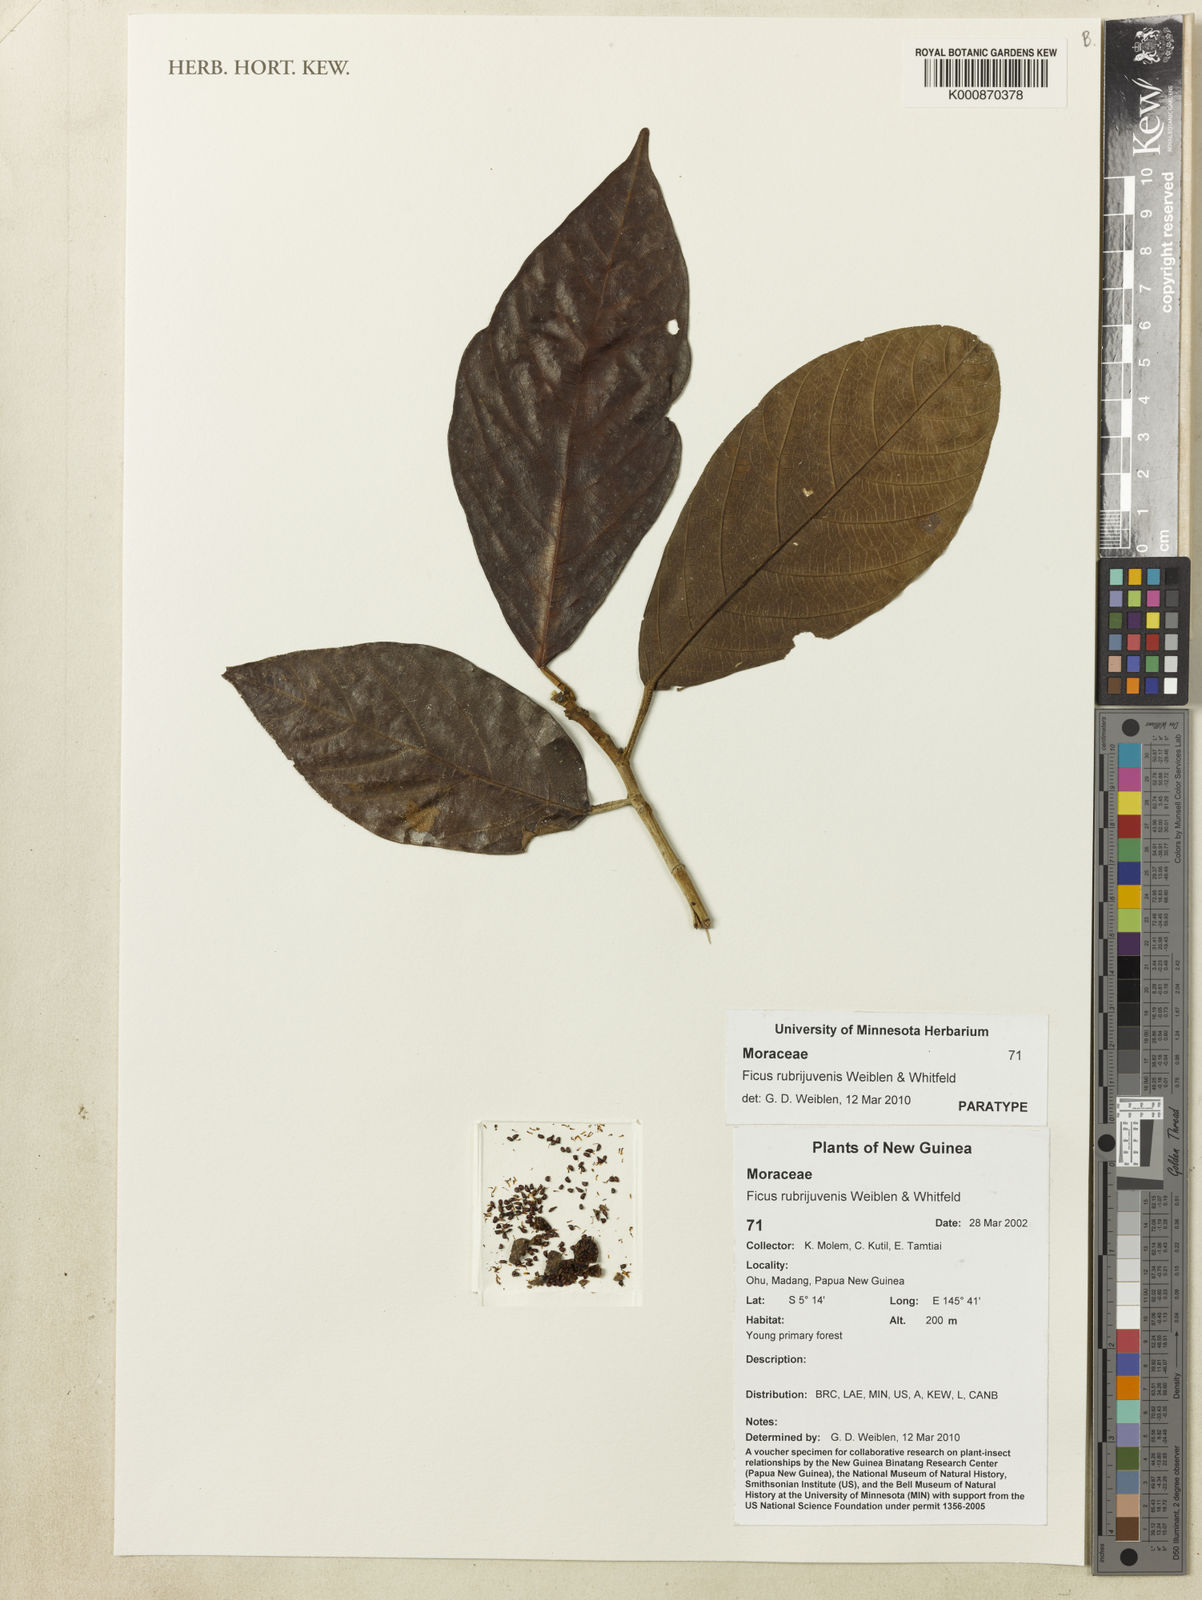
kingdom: Plantae
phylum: Tracheophyta
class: Magnoliopsida
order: Rosales
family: Moraceae
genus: Ficus
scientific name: Ficus rubrijuvenis
